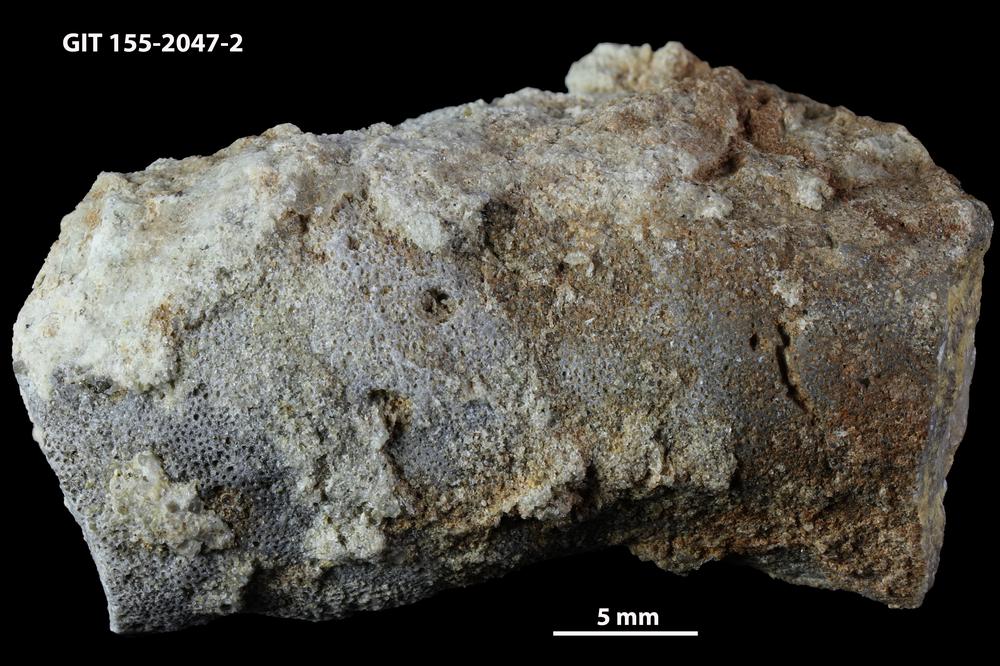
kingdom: Animalia
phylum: Bryozoa
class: Stenolaemata
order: Trepostomatida
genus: Pakripora
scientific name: Pakripora cavernosa
